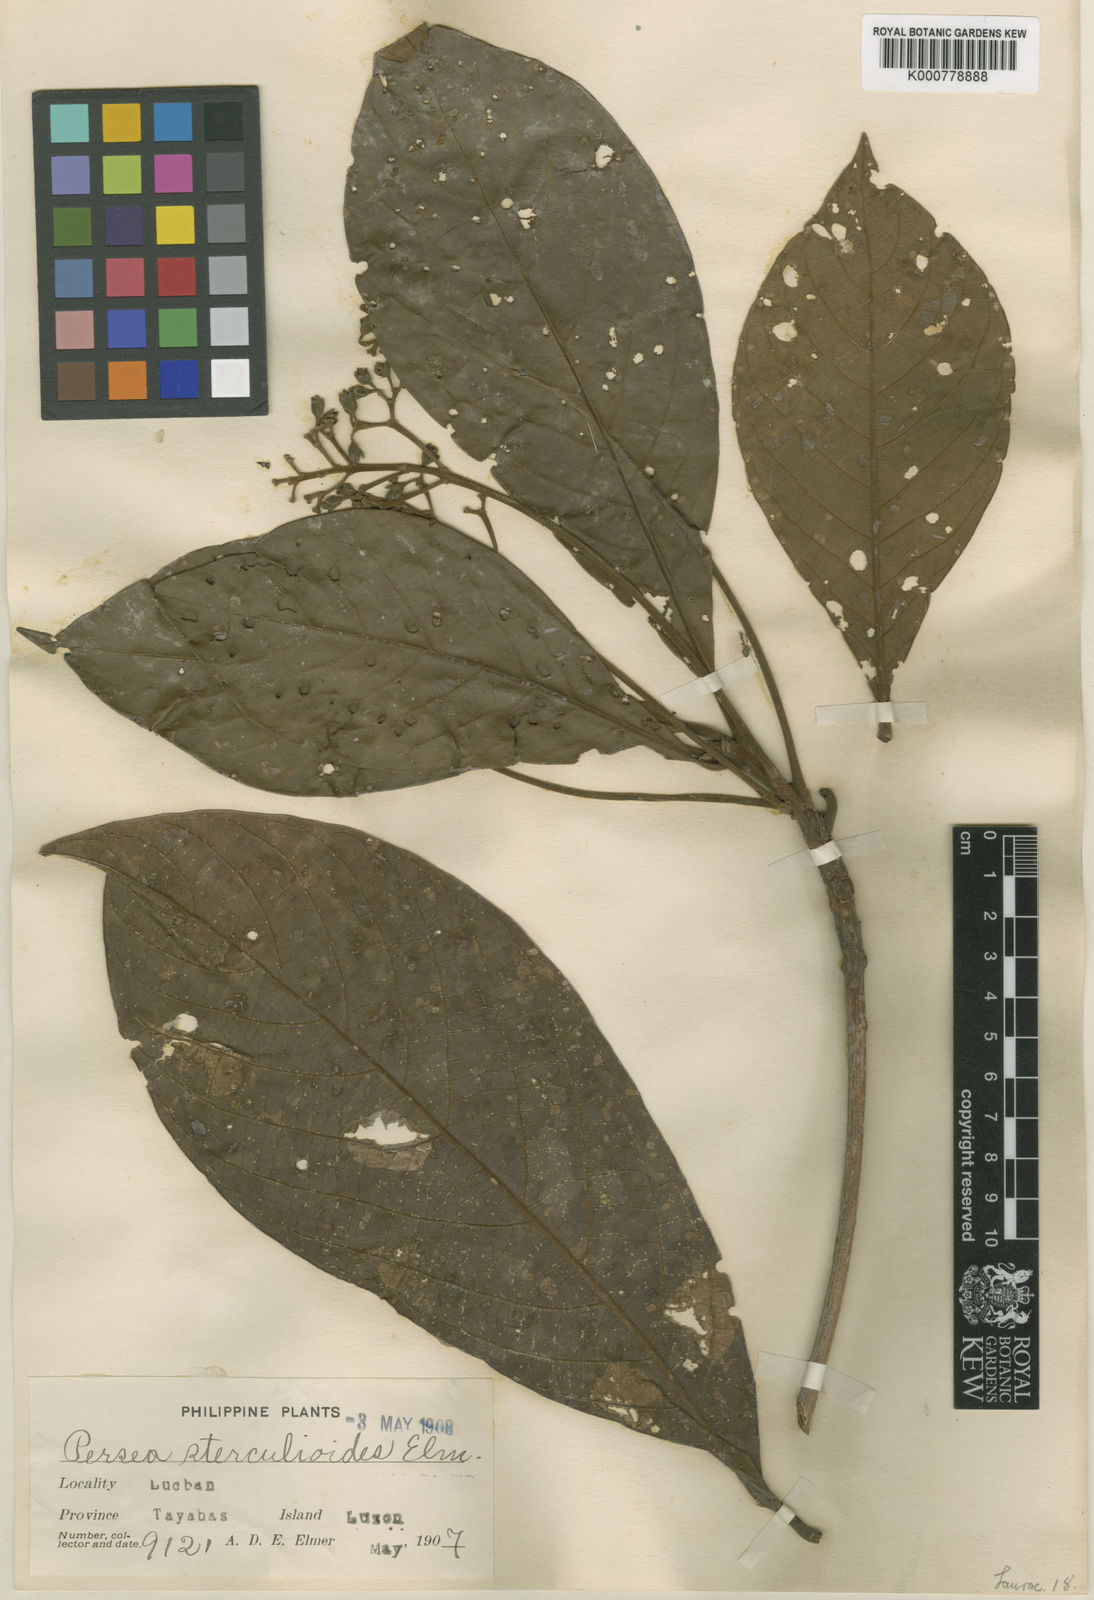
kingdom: Plantae
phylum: Tracheophyta
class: Magnoliopsida
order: Laurales
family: Lauraceae
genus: Phoebe
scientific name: Phoebe sterculioides
